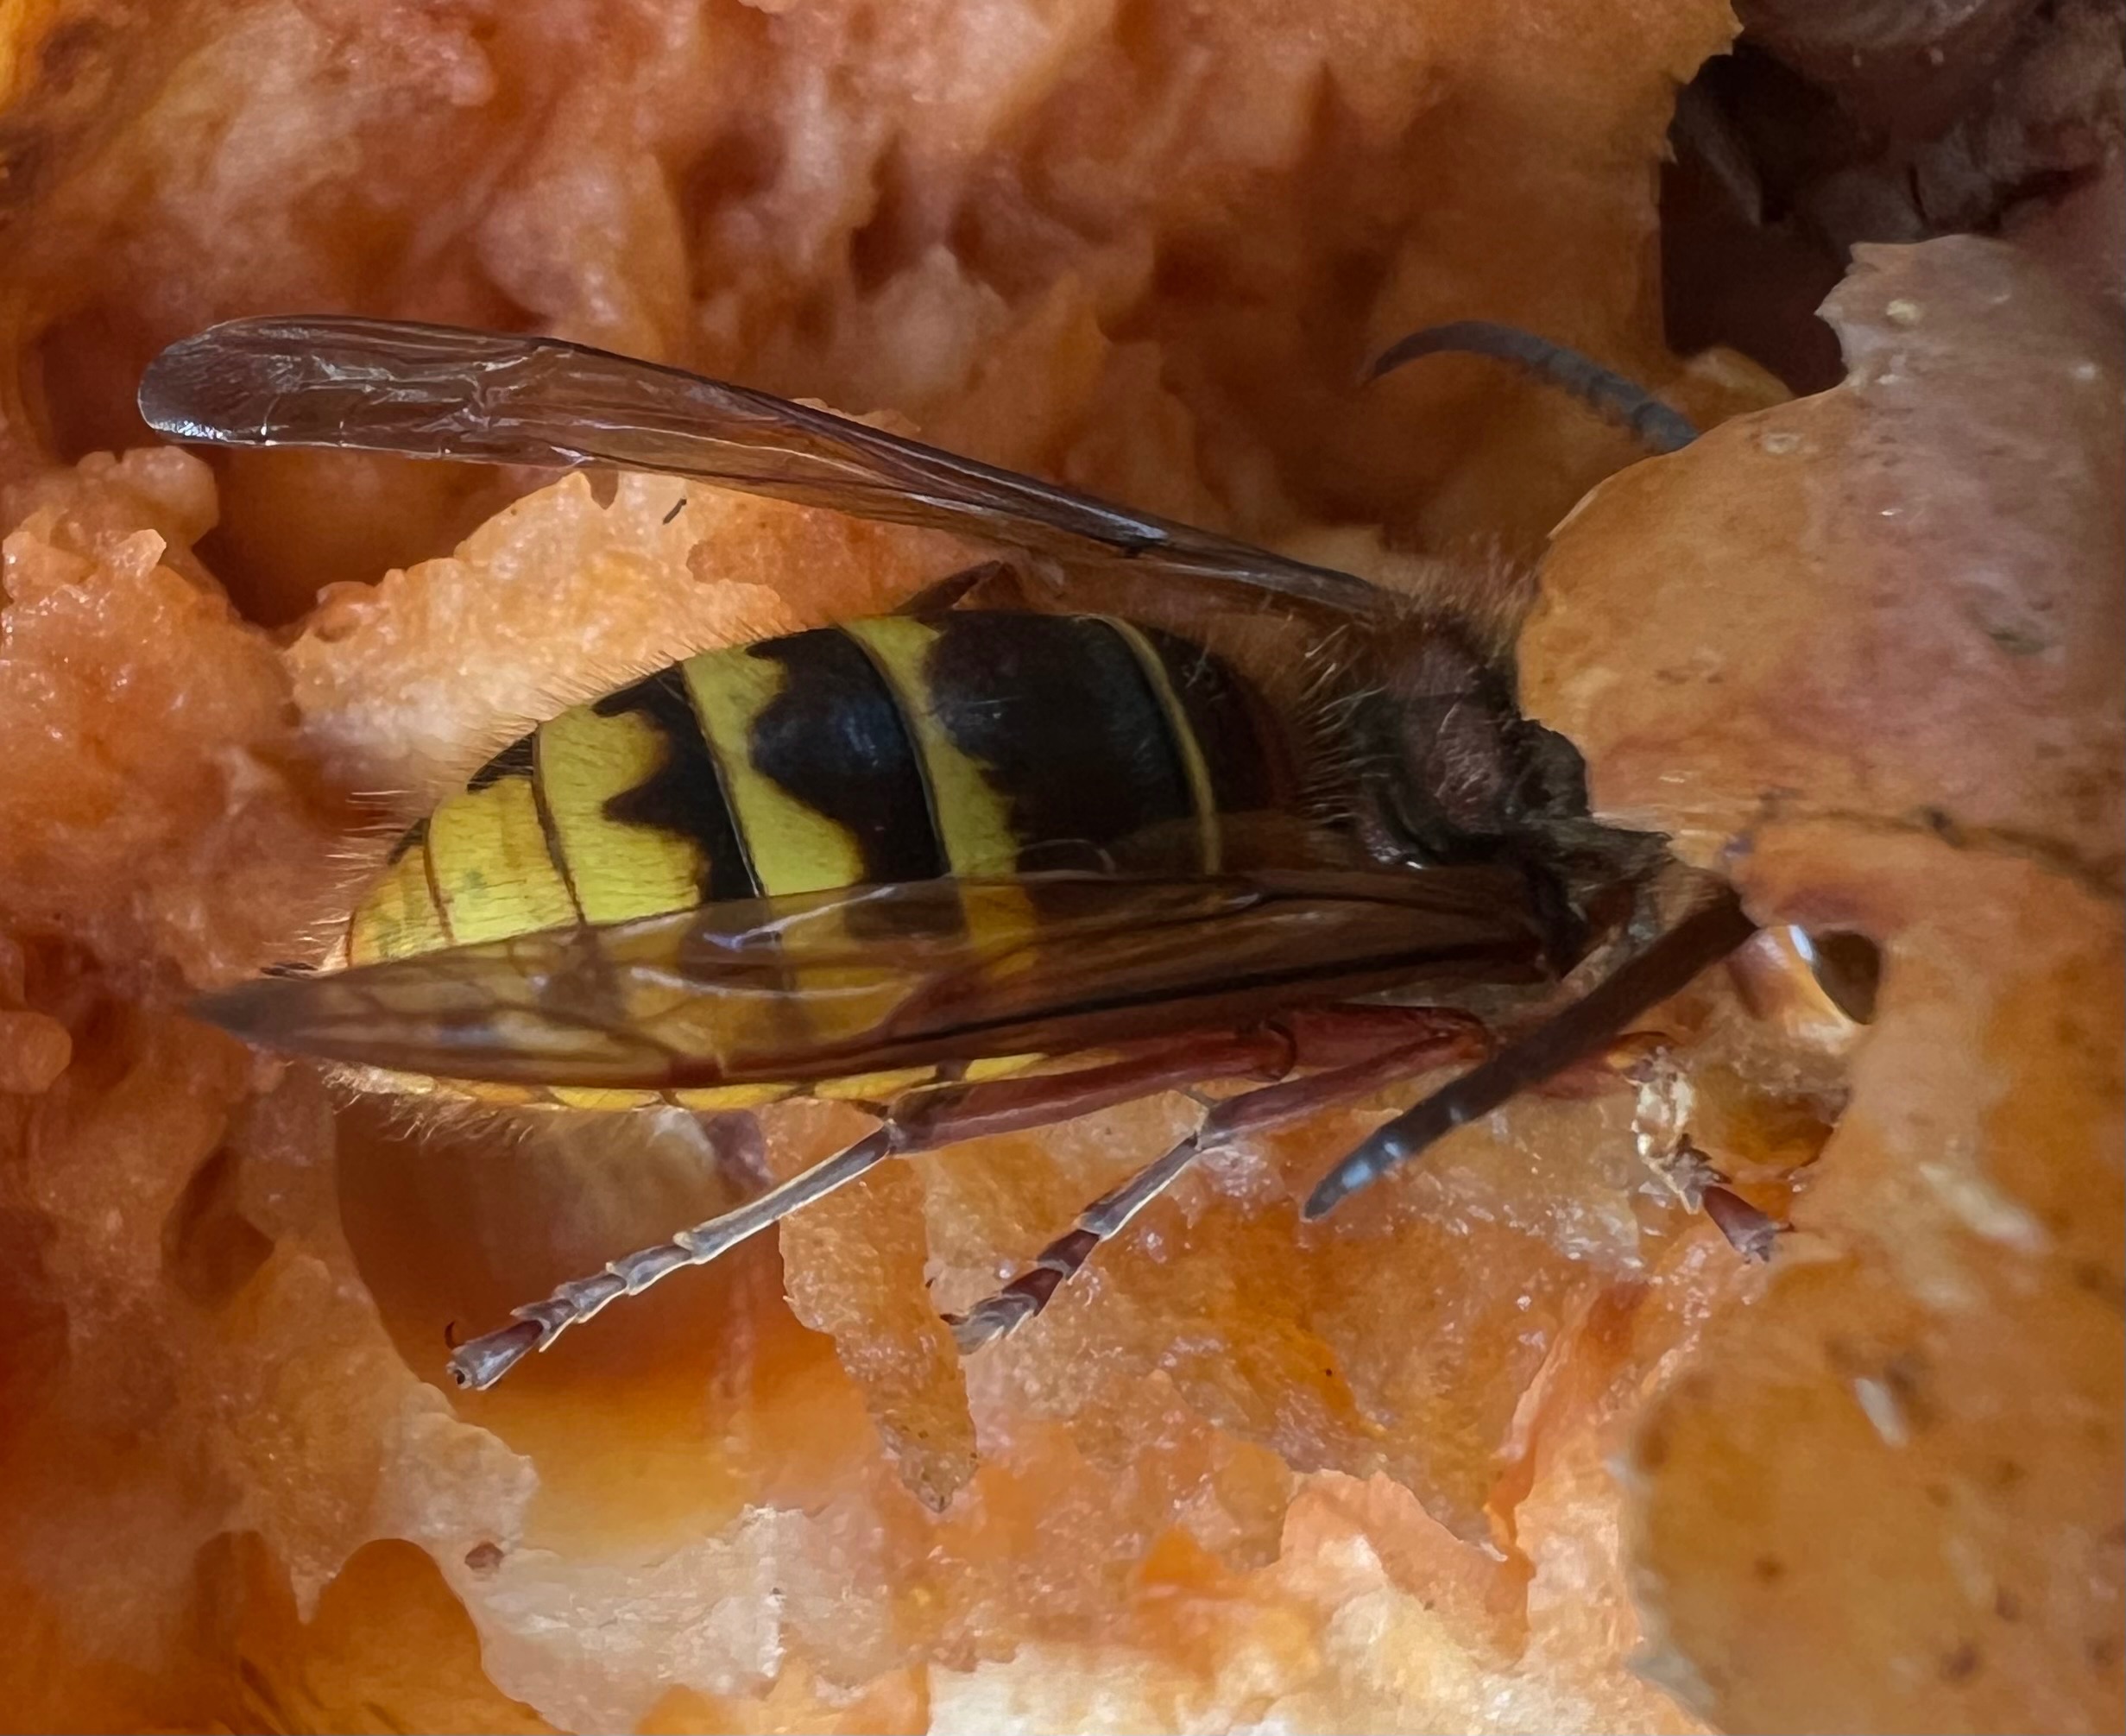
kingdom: Animalia
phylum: Arthropoda
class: Insecta
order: Hymenoptera
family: Vespidae
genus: Vespa
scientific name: Vespa crabro
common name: Stor gedehams
